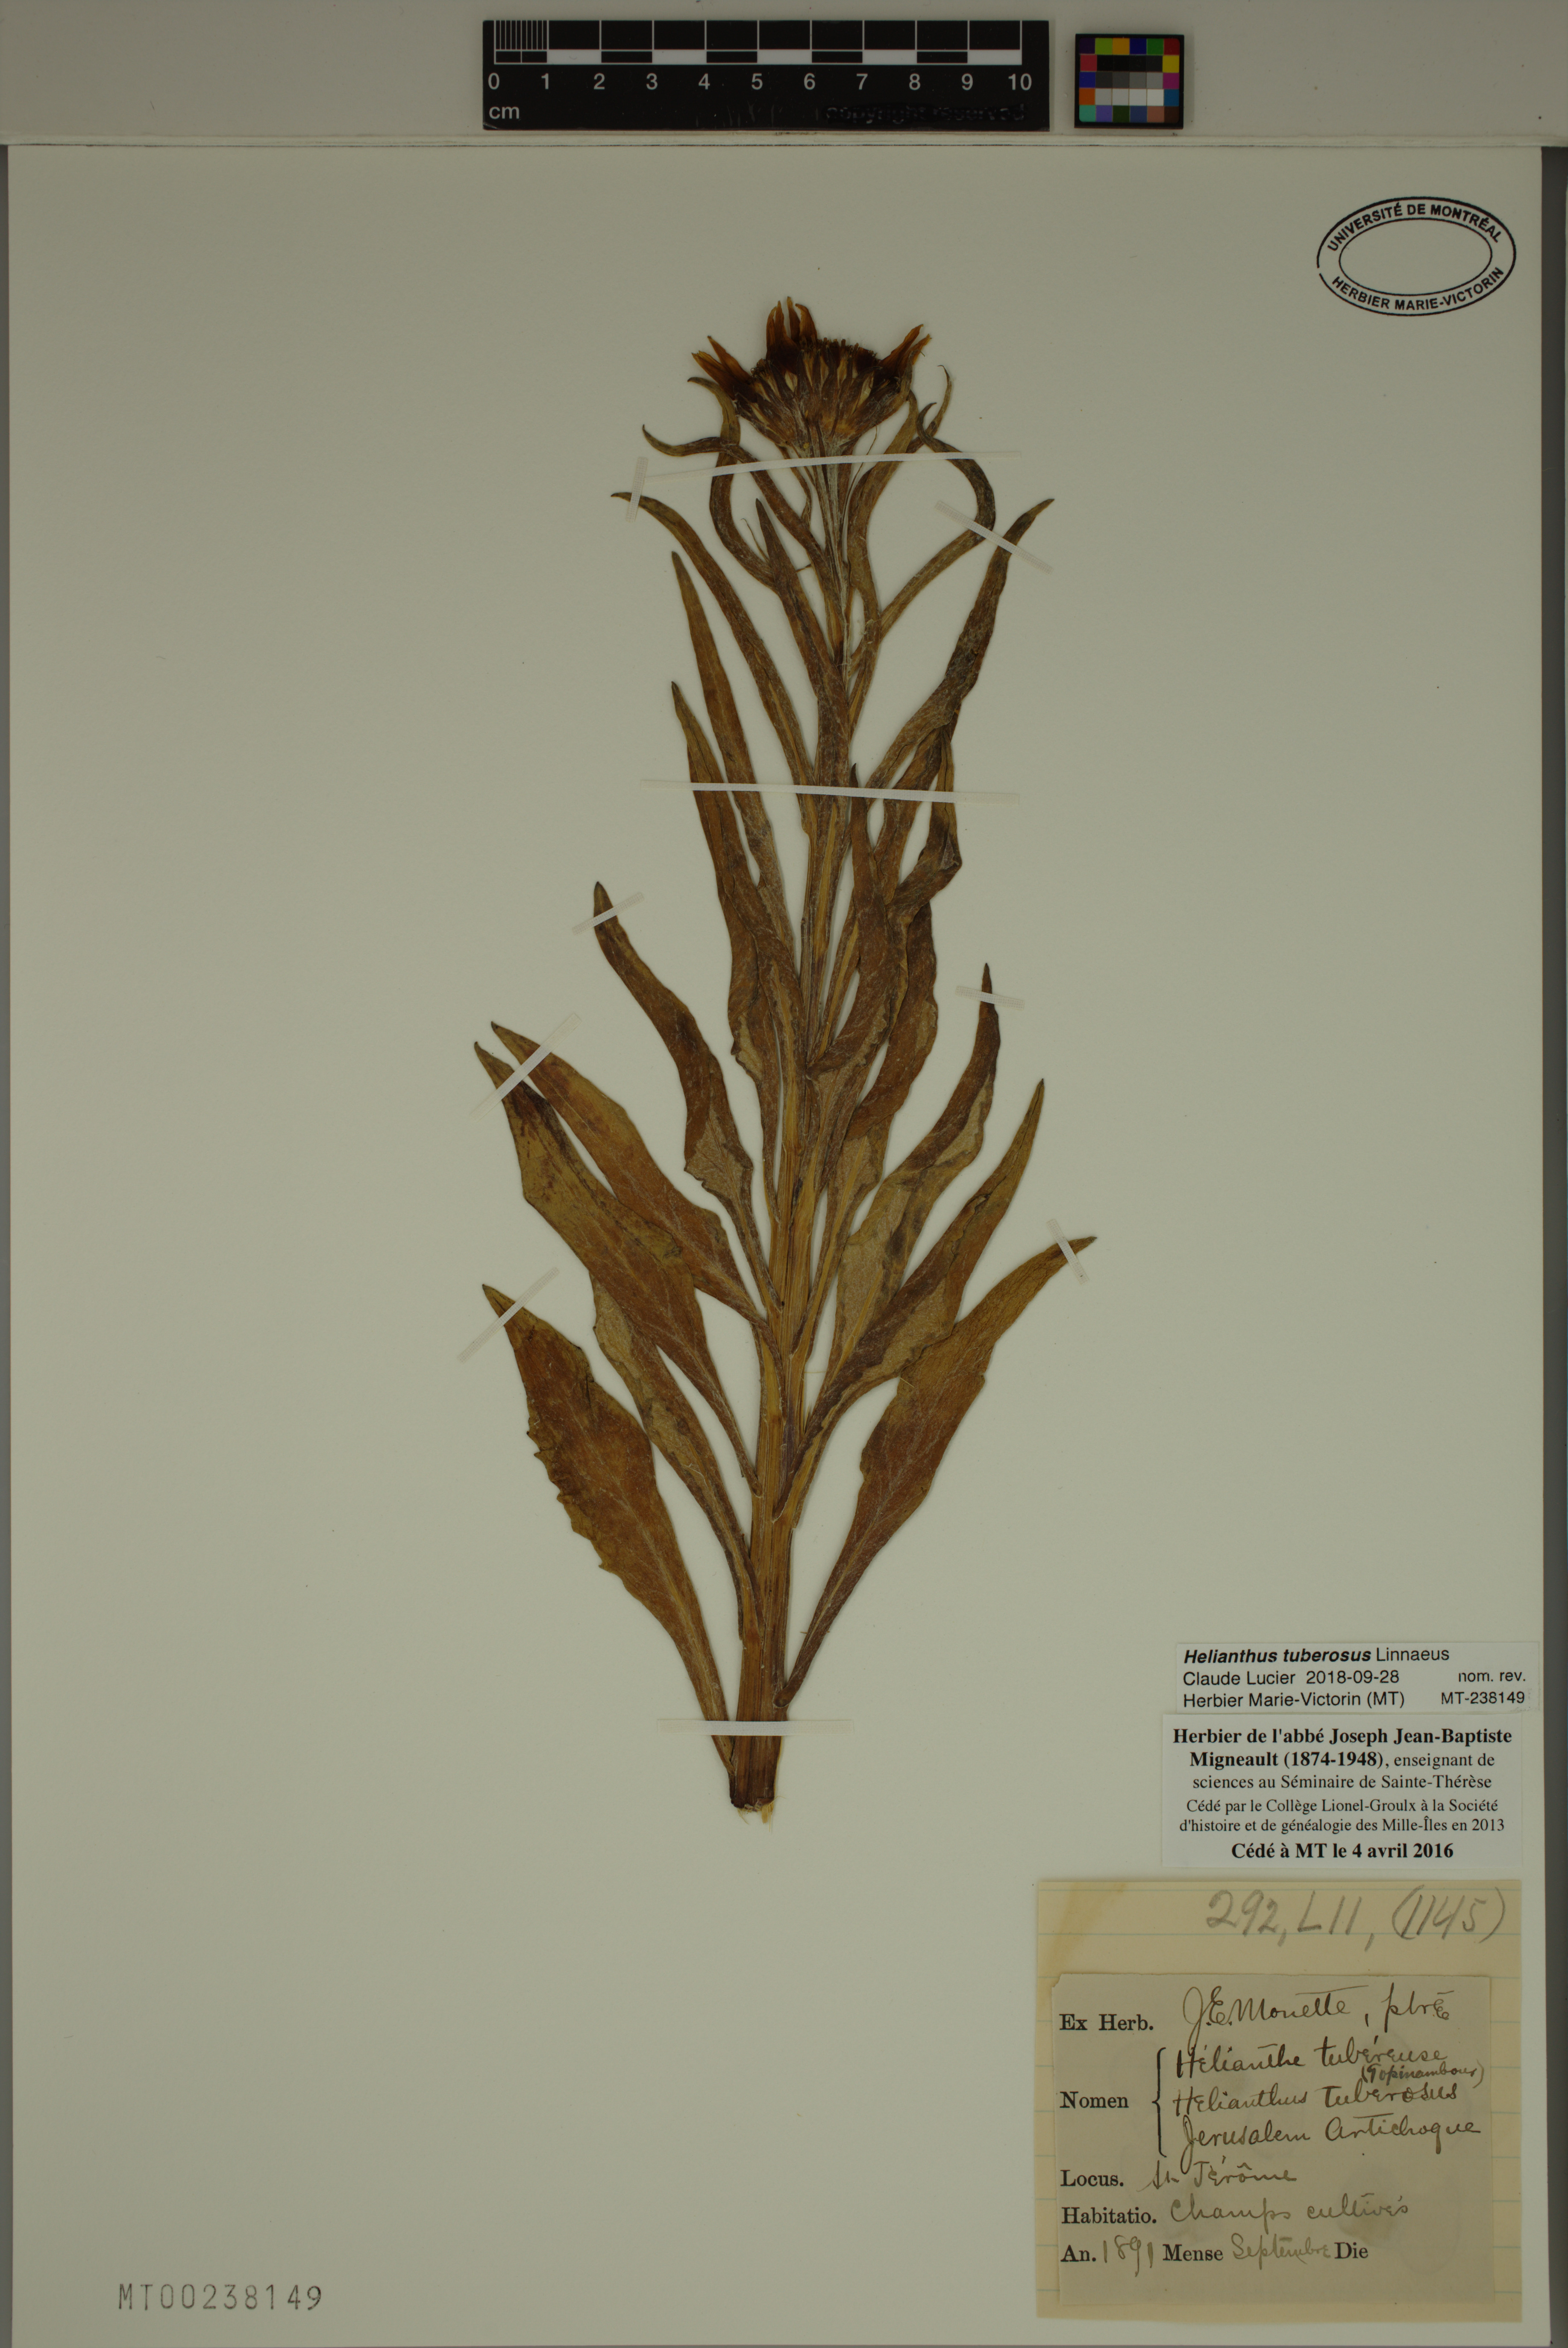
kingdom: Plantae
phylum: Tracheophyta
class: Magnoliopsida
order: Asterales
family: Asteraceae
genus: Helianthus
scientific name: Helianthus tuberosus
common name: Jerusalem artichoke
